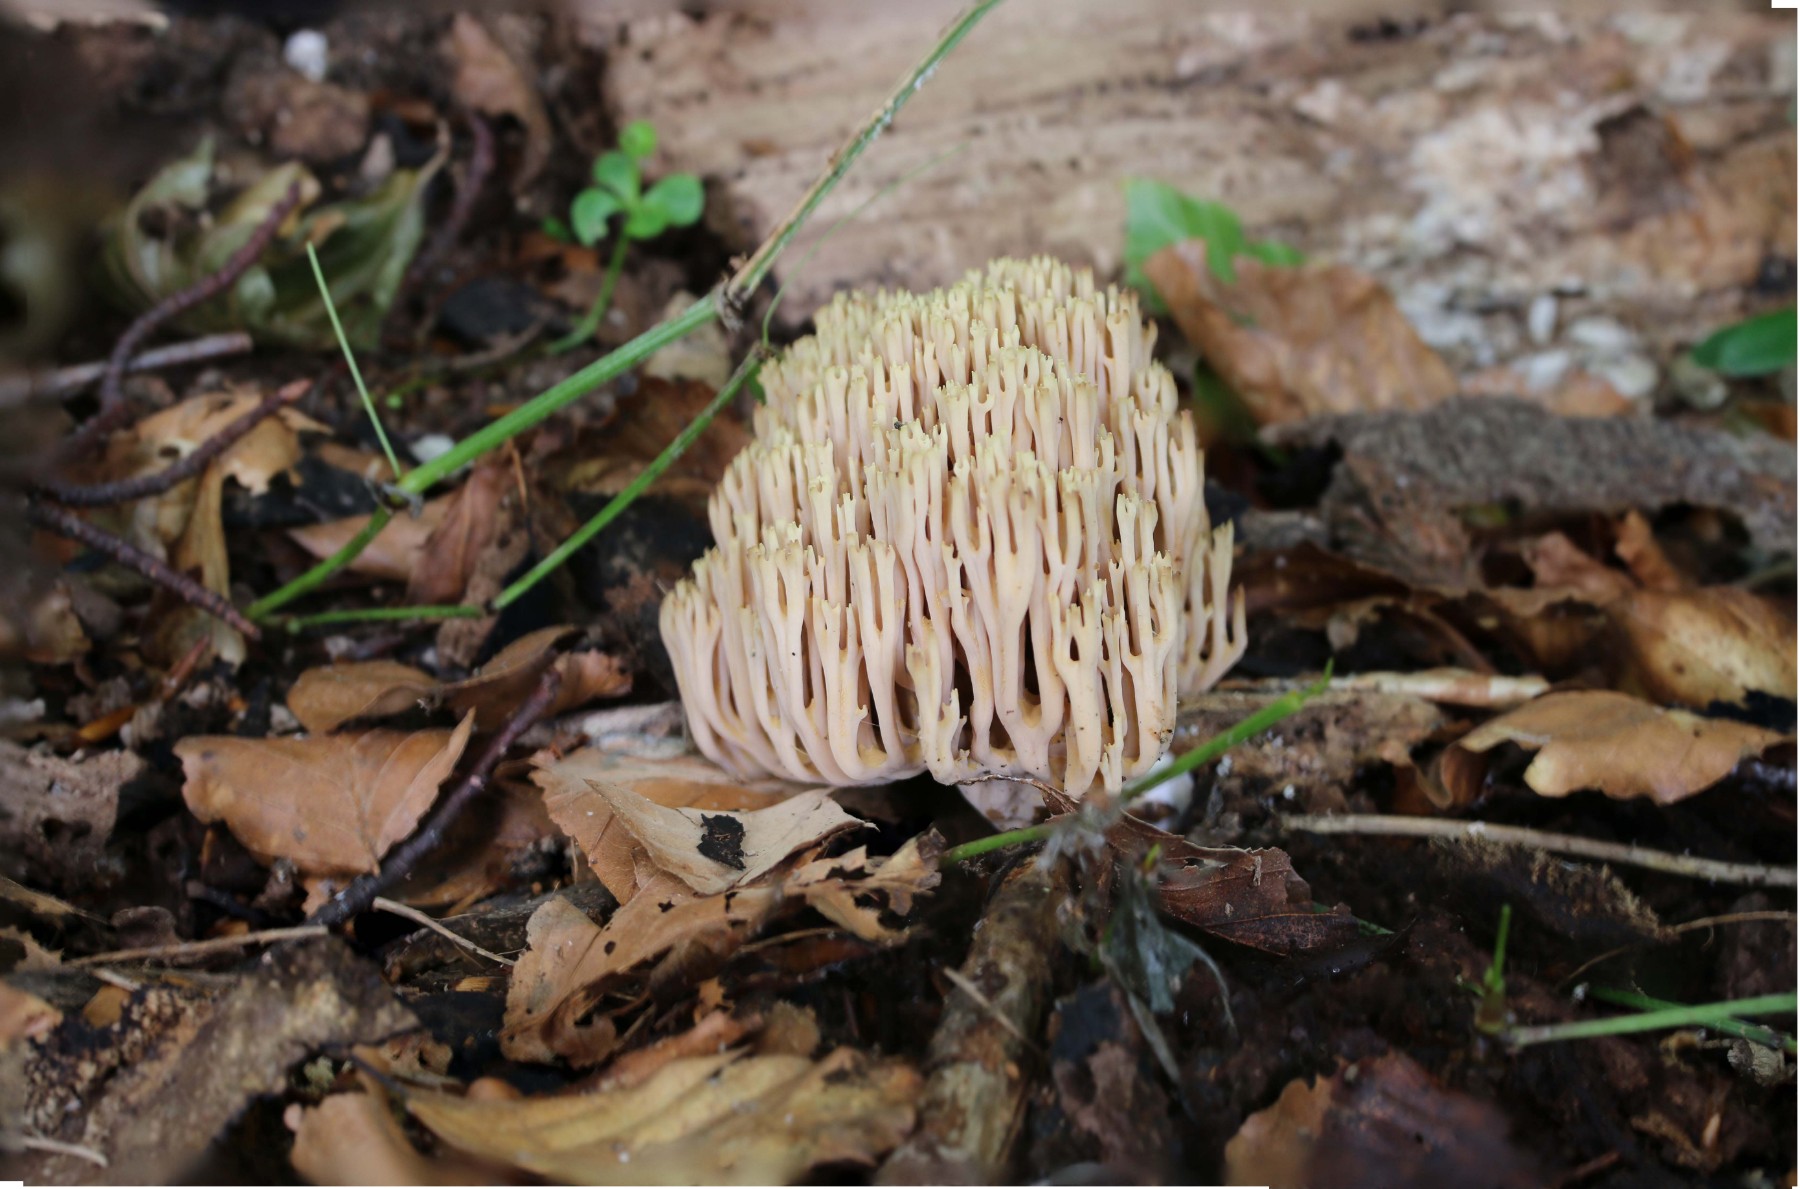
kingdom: Fungi
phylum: Basidiomycota
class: Agaricomycetes
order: Gomphales
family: Gomphaceae
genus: Ramaria
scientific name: Ramaria stricta
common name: rank koralsvamp
